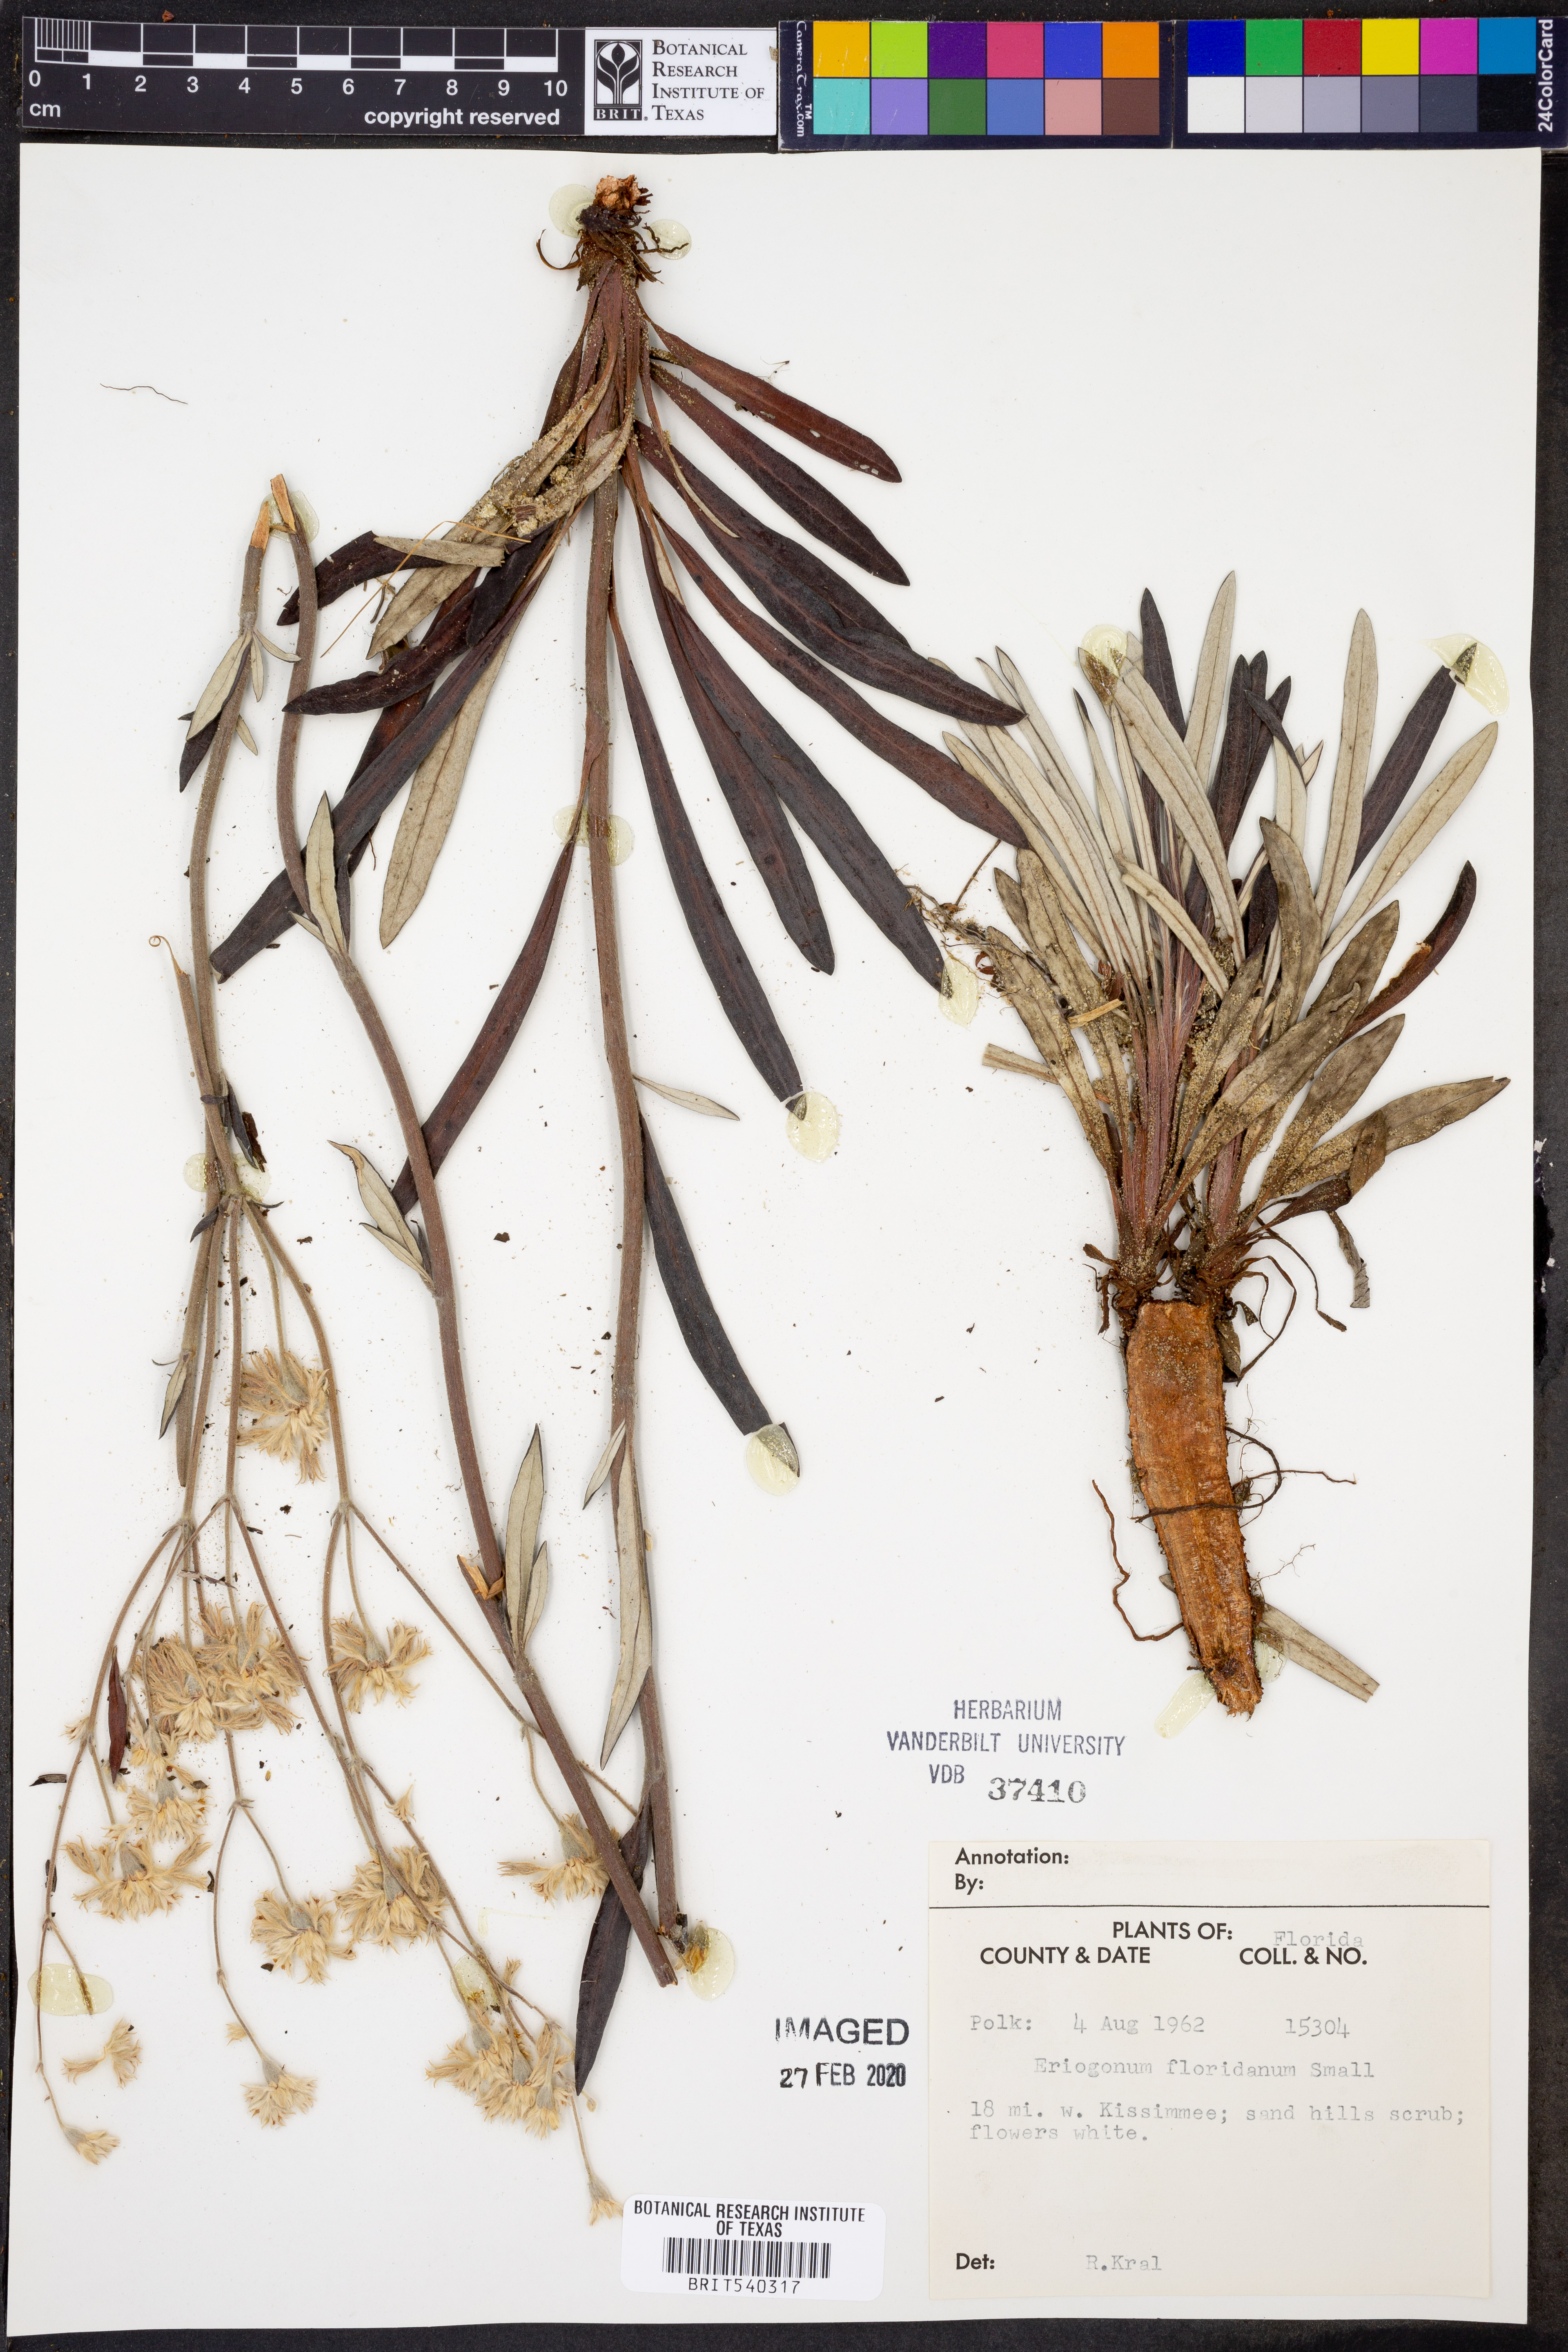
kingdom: Plantae
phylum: Tracheophyta
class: Magnoliopsida
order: Caryophyllales
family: Polygonaceae
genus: Eriogonum
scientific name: Eriogonum longifolium
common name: Longleaf wild buckwheat
